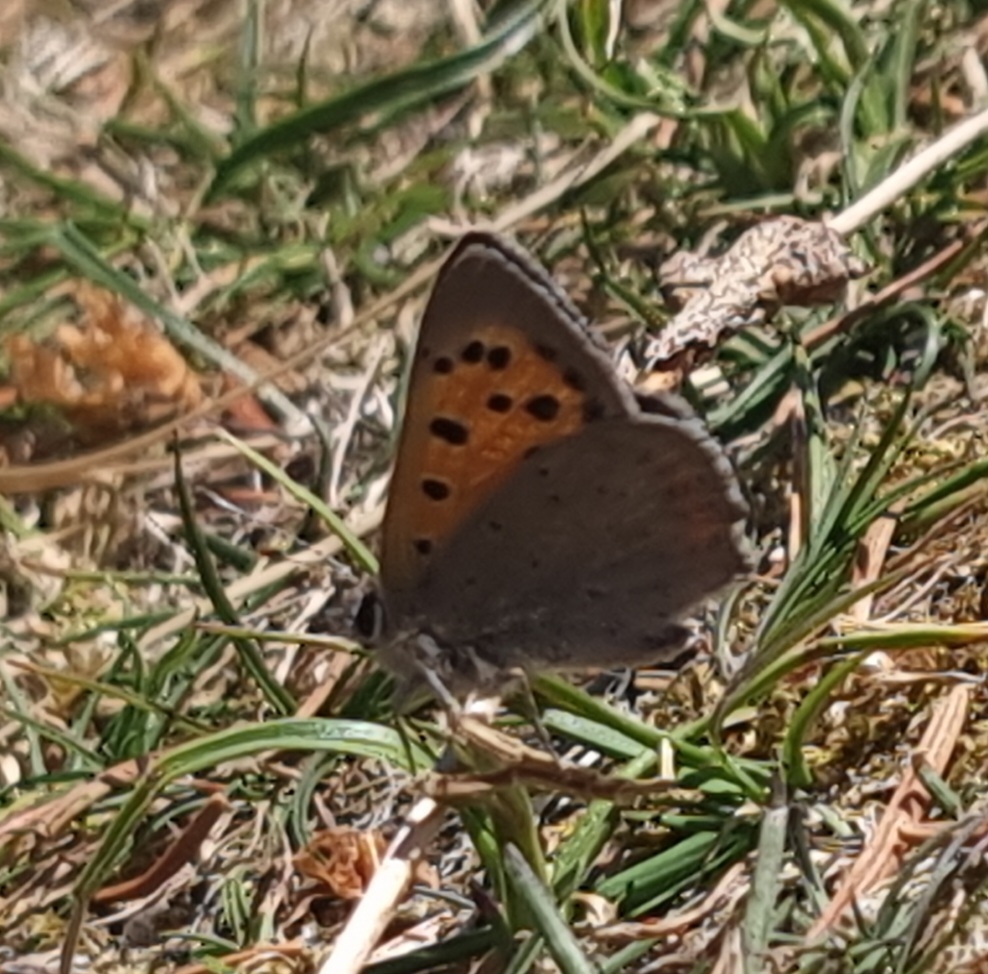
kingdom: Animalia
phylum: Arthropoda
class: Insecta
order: Lepidoptera
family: Lycaenidae
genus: Lycaena
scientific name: Lycaena phlaeas
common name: Lille ildfugl
